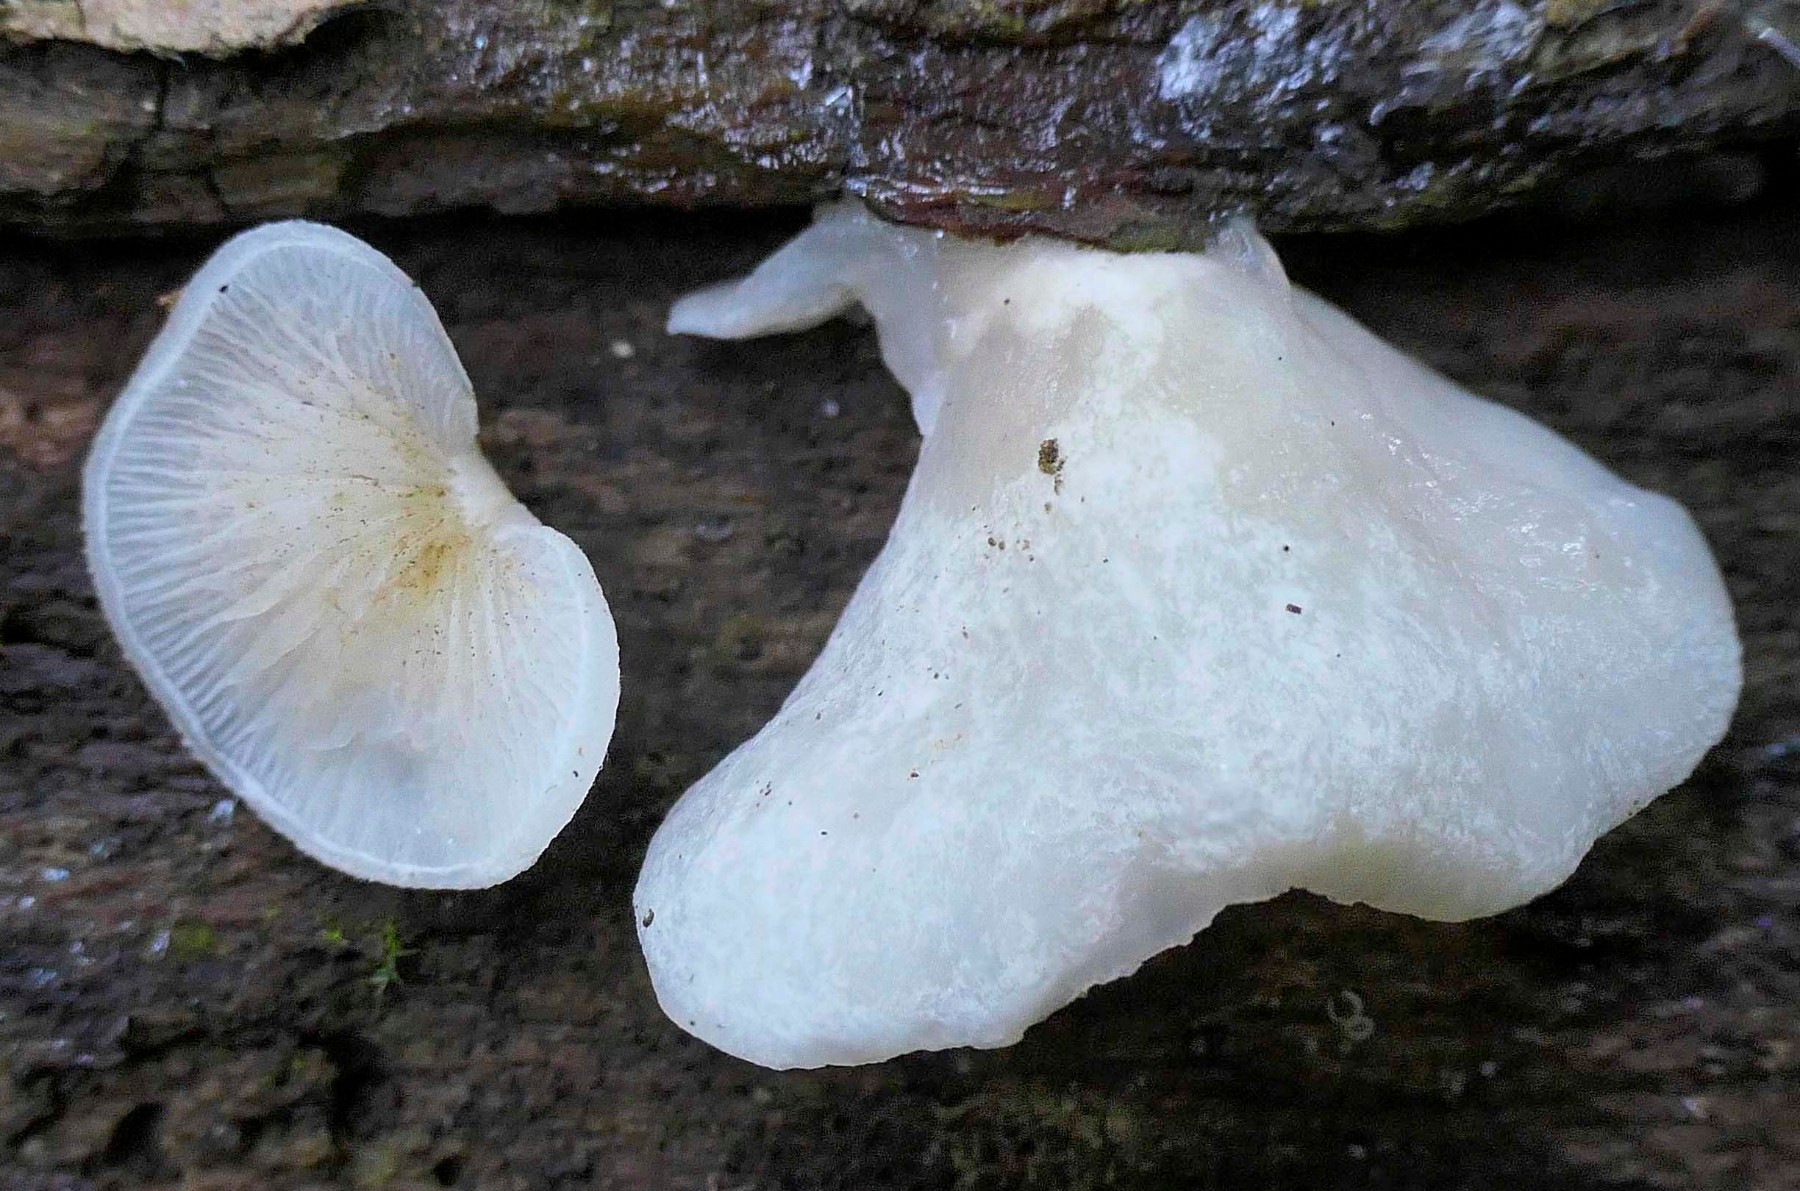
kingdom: Fungi
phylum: Basidiomycota
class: Agaricomycetes
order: Agaricales
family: Crepidotaceae
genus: Crepidotus
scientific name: Crepidotus mollis
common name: blød muslingesvamp
